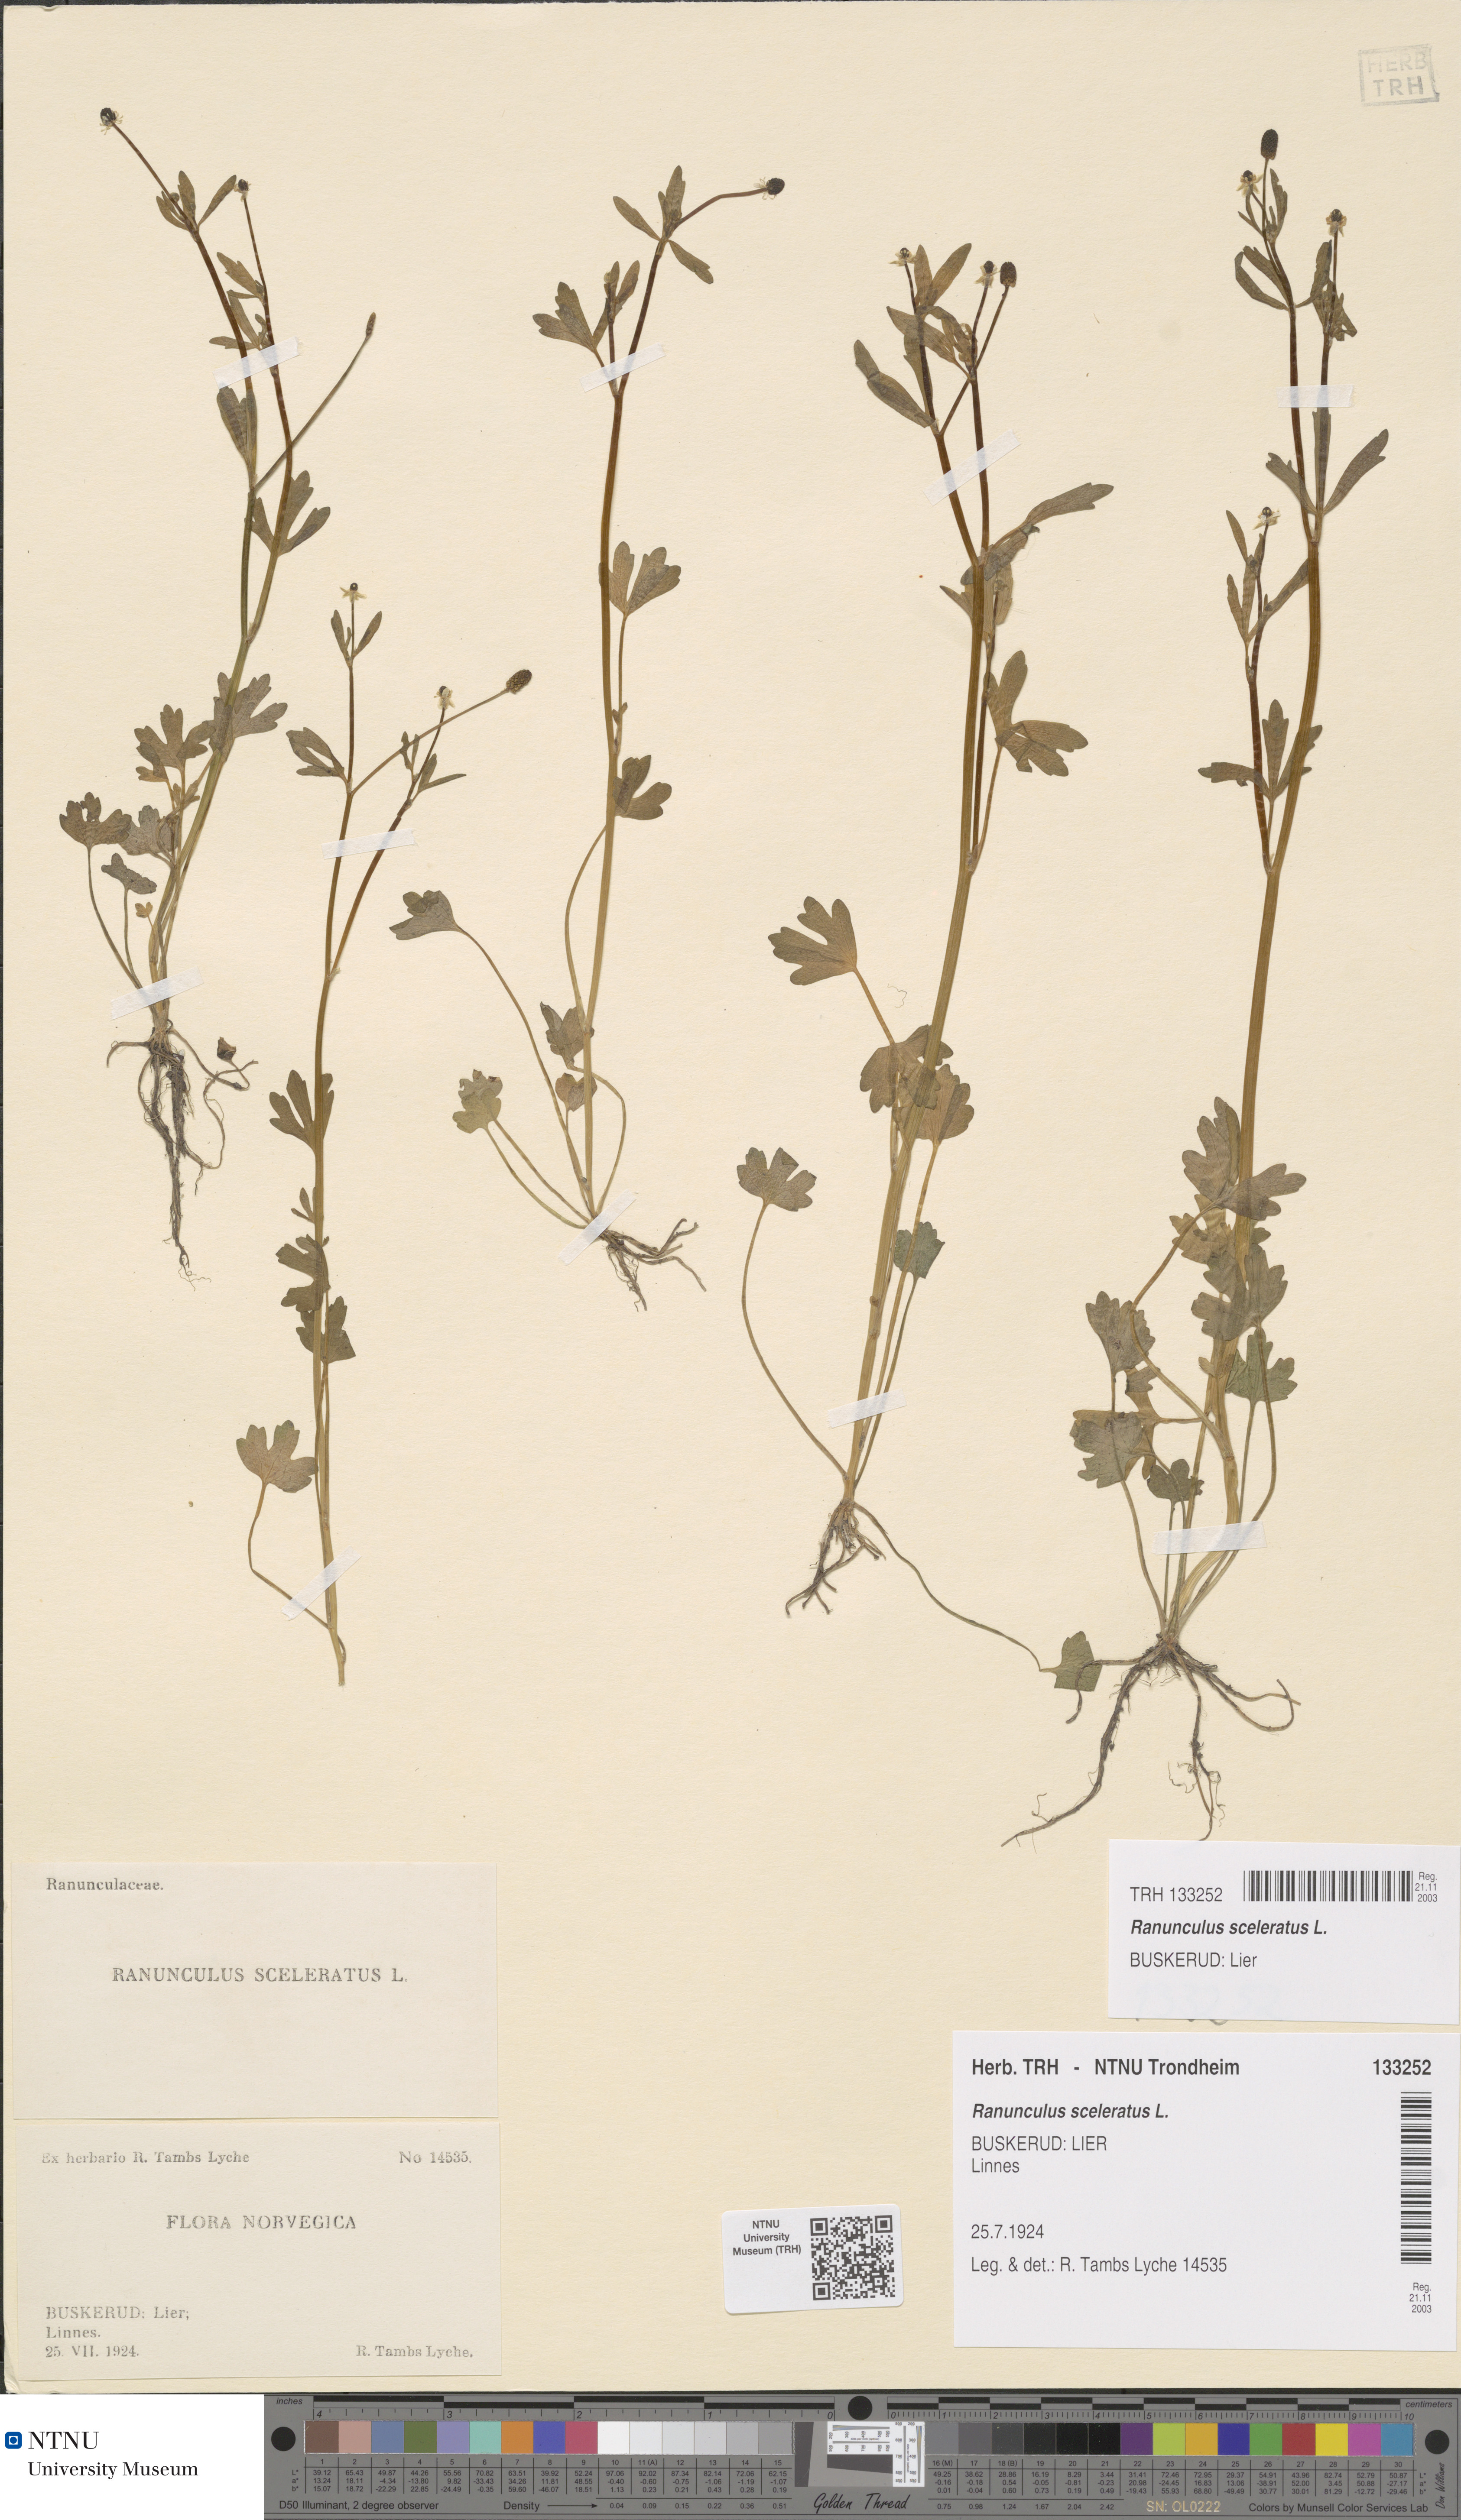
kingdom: Plantae
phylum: Tracheophyta
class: Magnoliopsida
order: Ranunculales
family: Ranunculaceae
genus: Ranunculus
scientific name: Ranunculus sceleratus
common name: Celery-leaved buttercup
